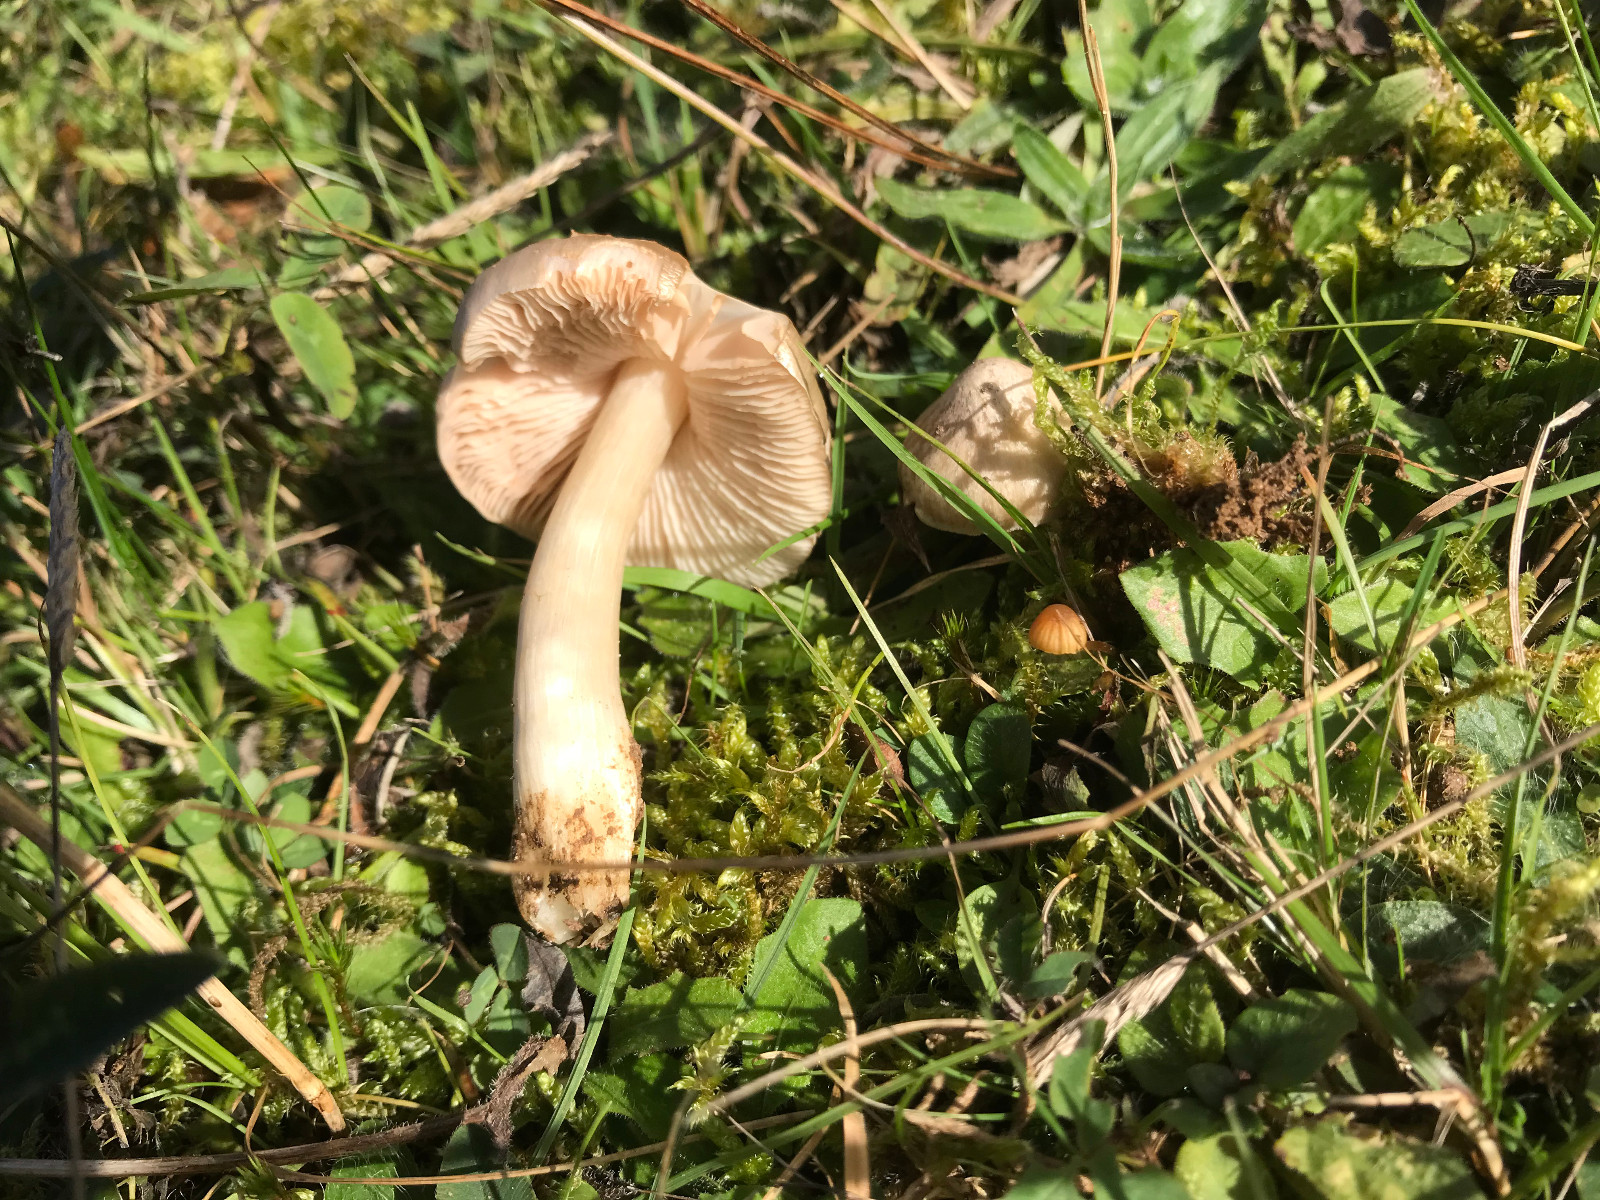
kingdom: Fungi
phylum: Basidiomycota
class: Agaricomycetes
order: Agaricales
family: Entolomataceae
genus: Entoloma
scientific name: Entoloma prunuloides
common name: mel-rødblad
